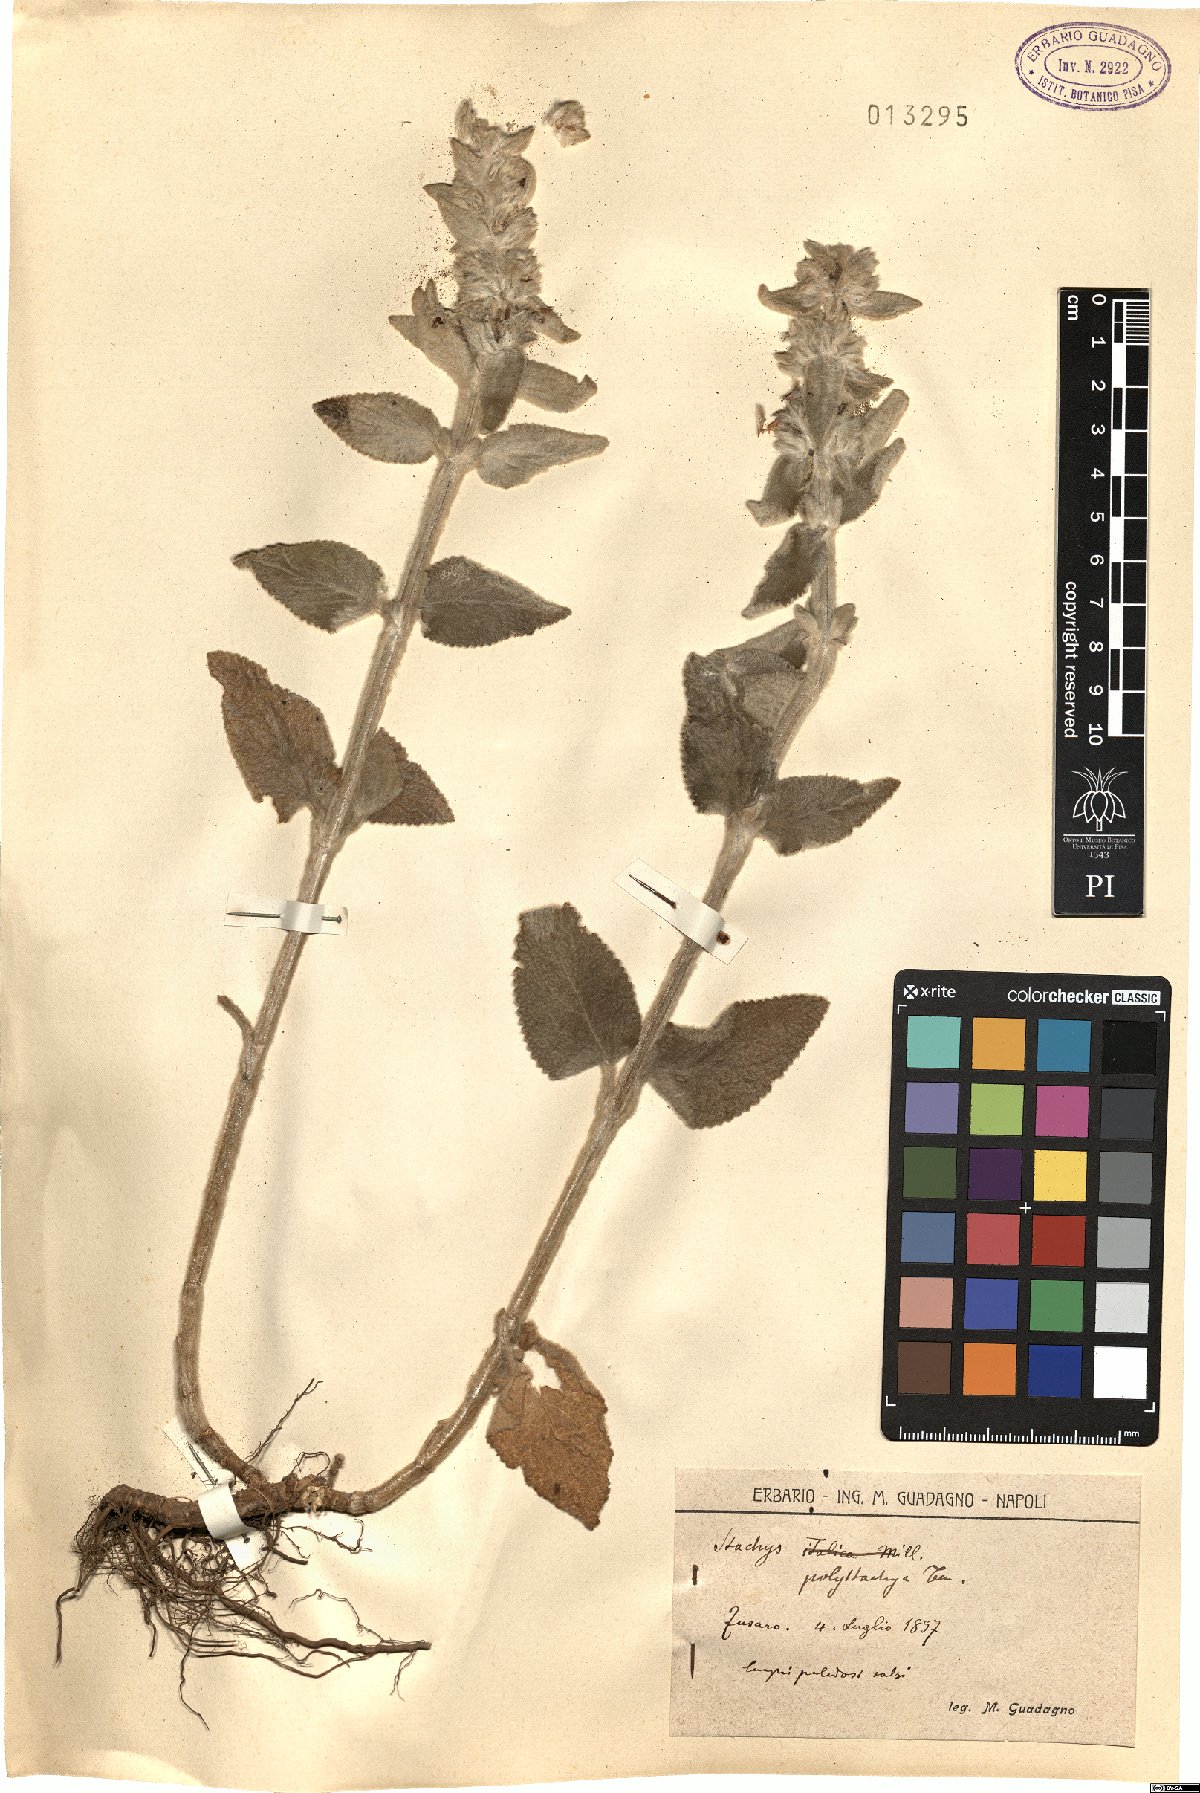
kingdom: Plantae
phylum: Tracheophyta
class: Magnoliopsida
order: Lamiales
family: Lamiaceae
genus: Stachys
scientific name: Stachys germanica
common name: Downy woundwort
